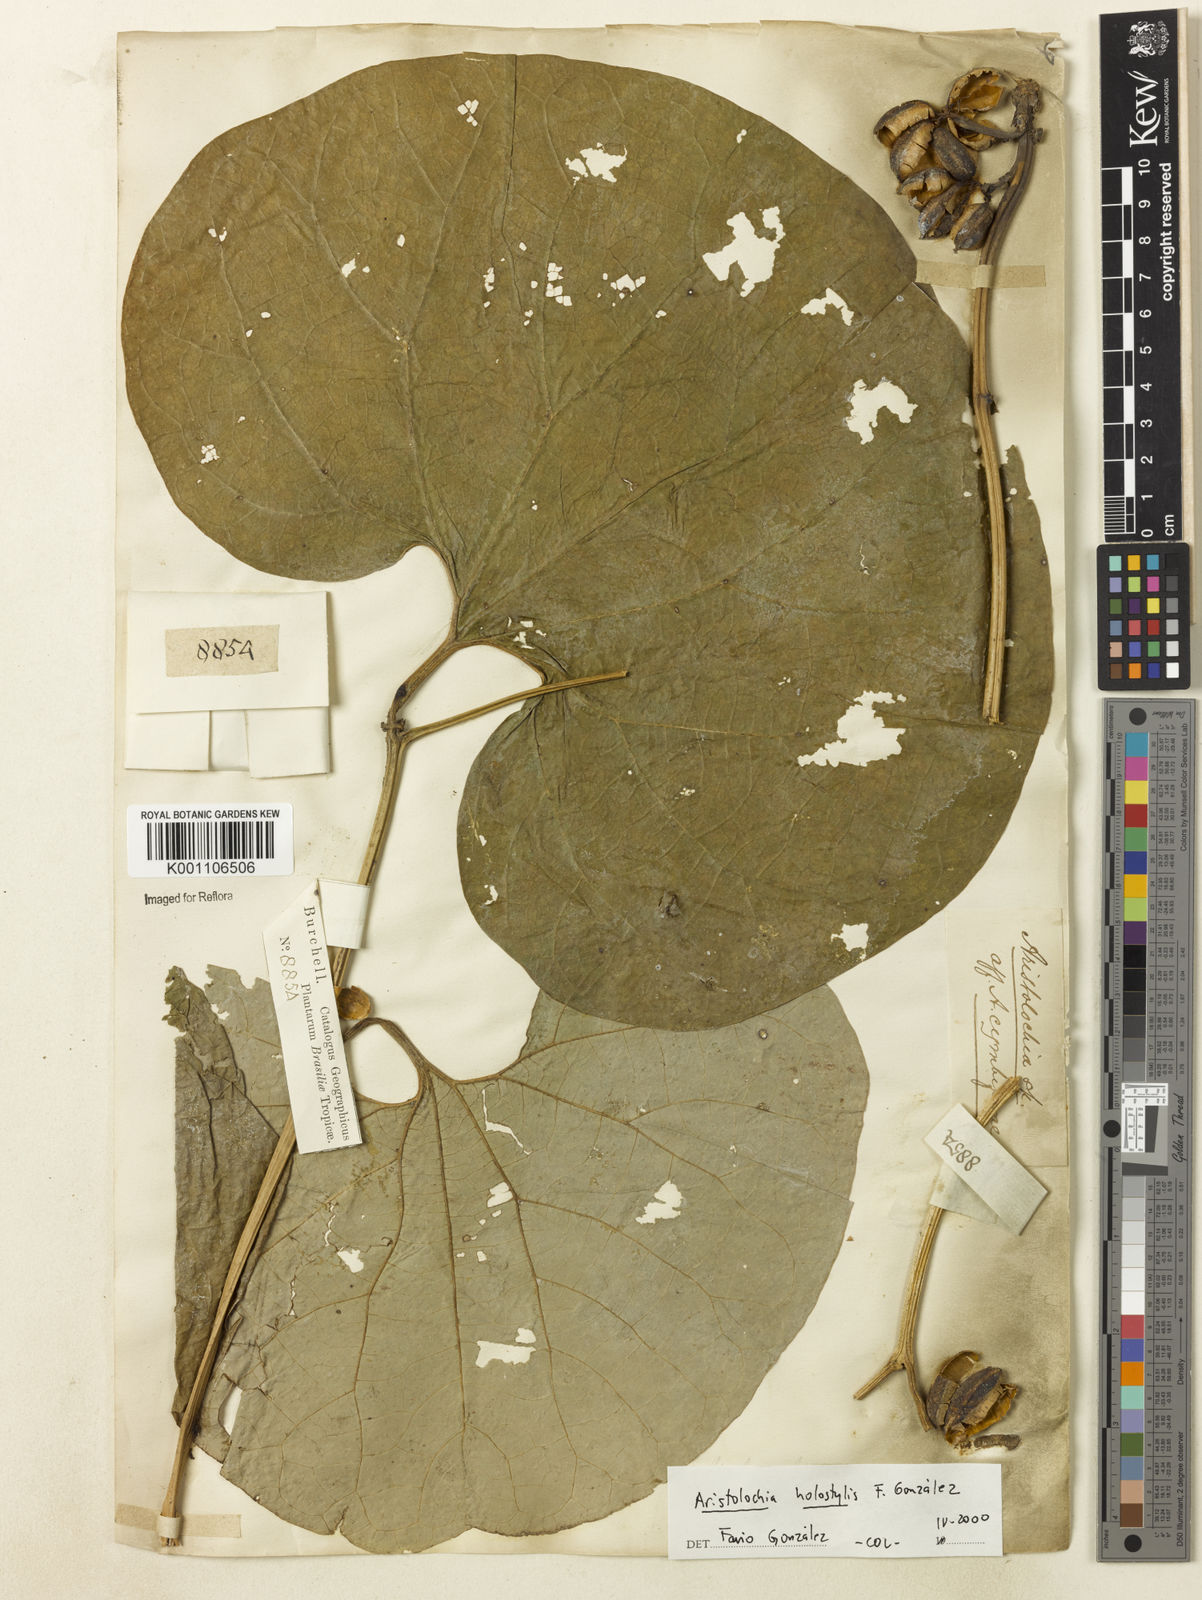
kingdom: Plantae
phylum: Tracheophyta
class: Magnoliopsida
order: Piperales
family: Aristolochiaceae
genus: Aristolochia
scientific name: Aristolochia
